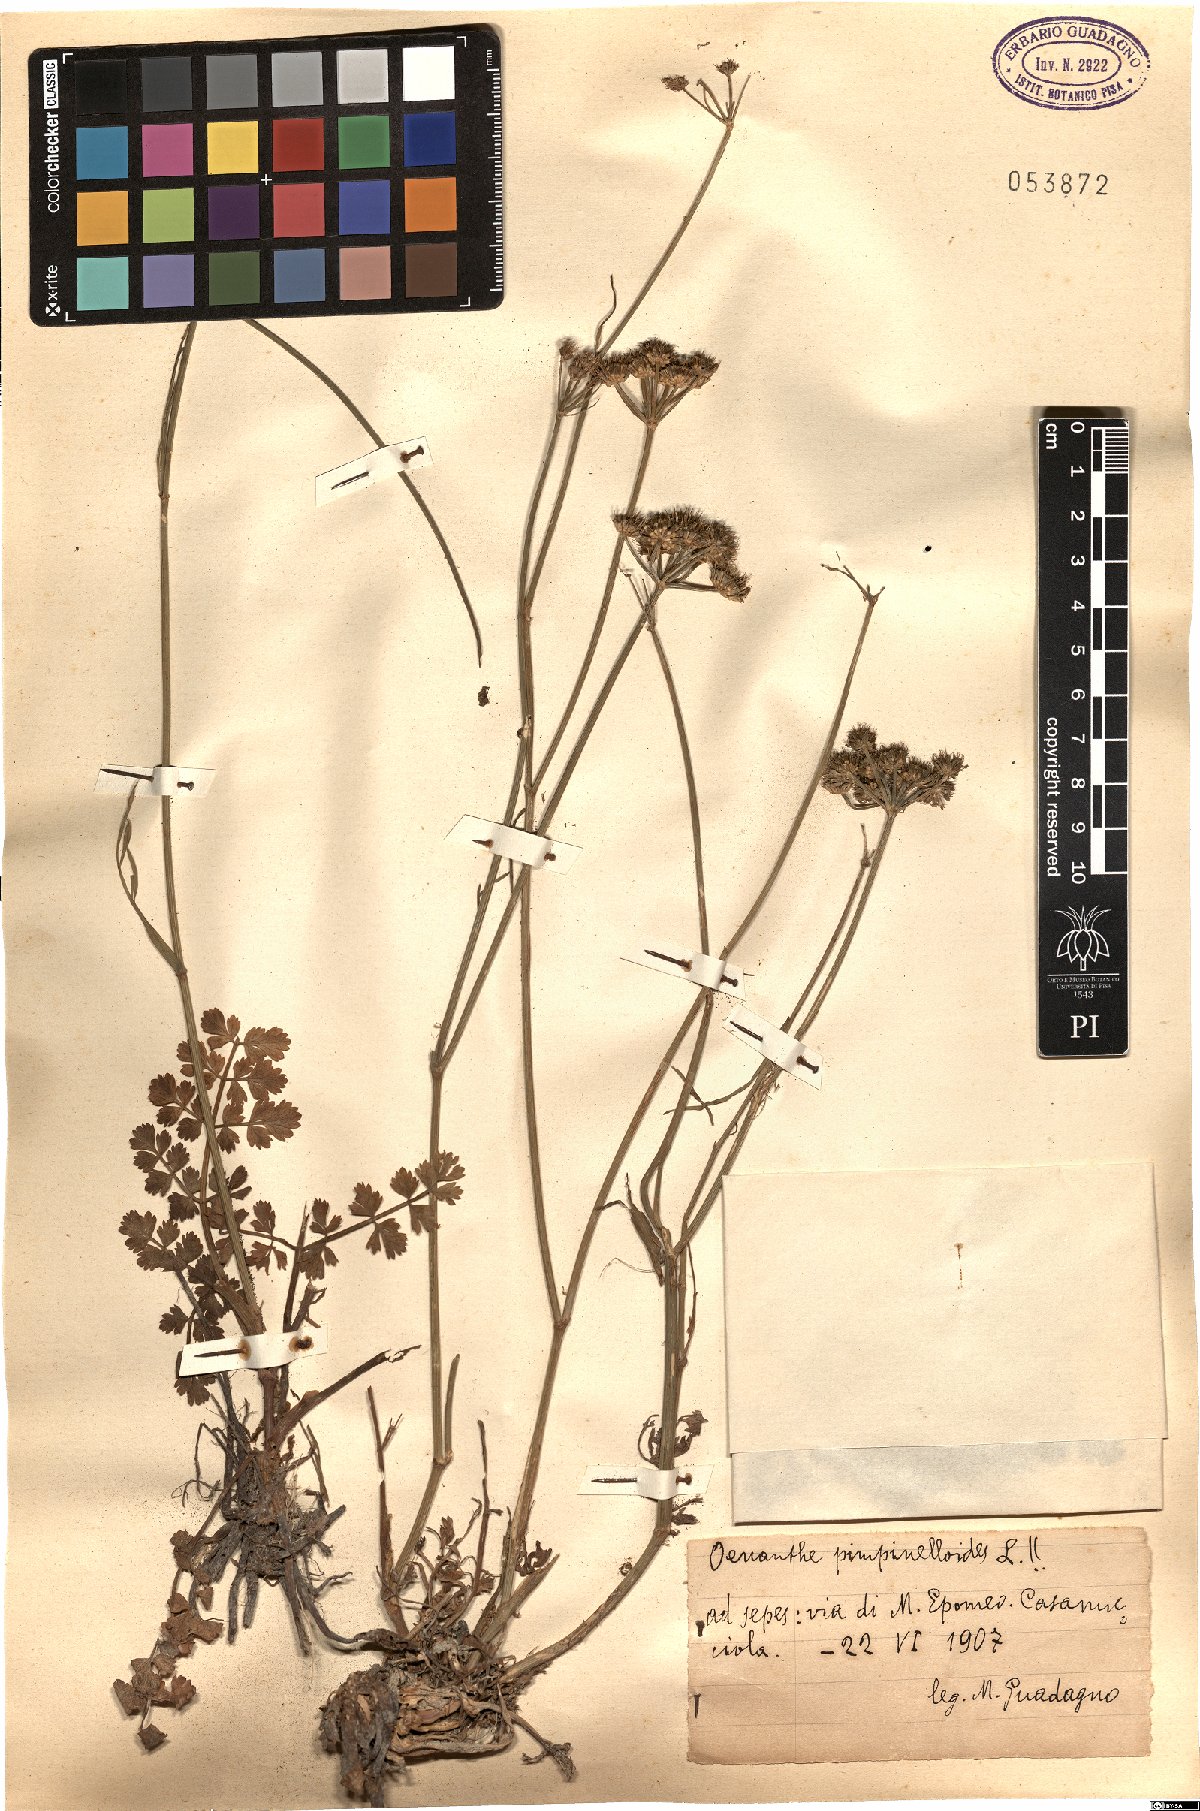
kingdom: Plantae
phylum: Tracheophyta
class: Magnoliopsida
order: Apiales
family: Apiaceae
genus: Oenanthe
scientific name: Oenanthe pimpinelloides
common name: Corky-fruited water-dropwort
